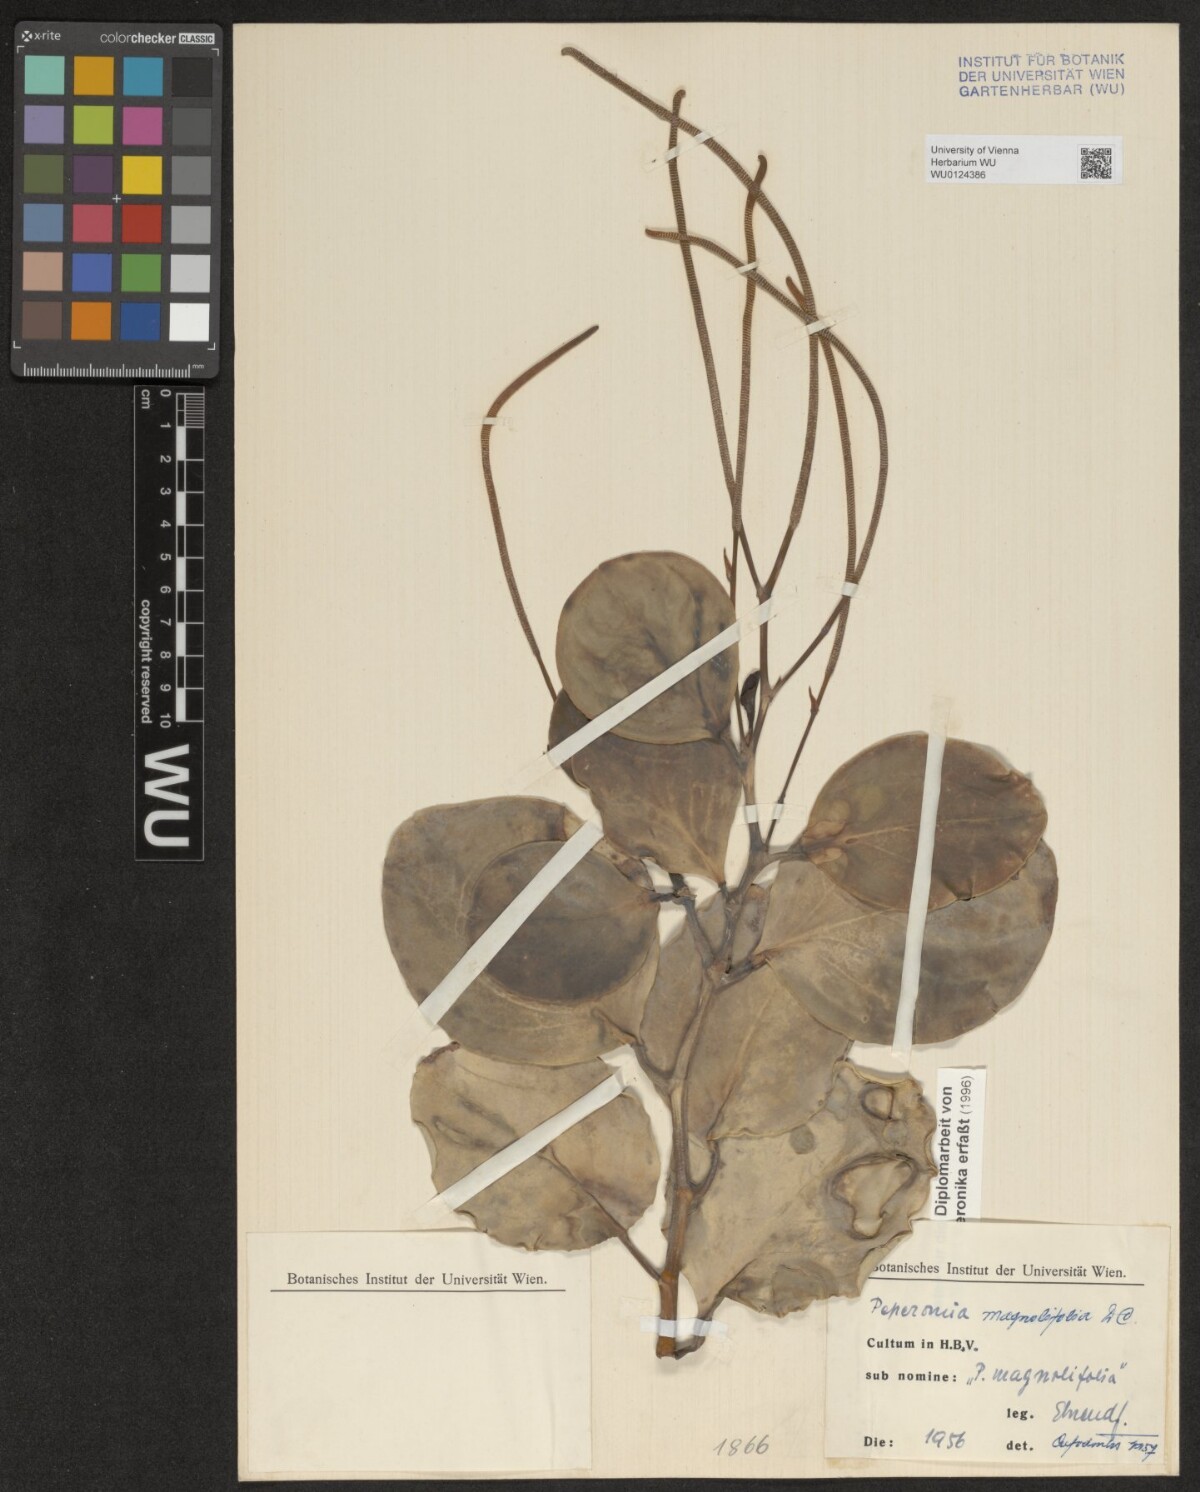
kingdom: Plantae
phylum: Tracheophyta
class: Magnoliopsida
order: Piperales
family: Piperaceae
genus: Peperomia
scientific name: Peperomia magnoliifolia
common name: Spoonleaf peperomia
